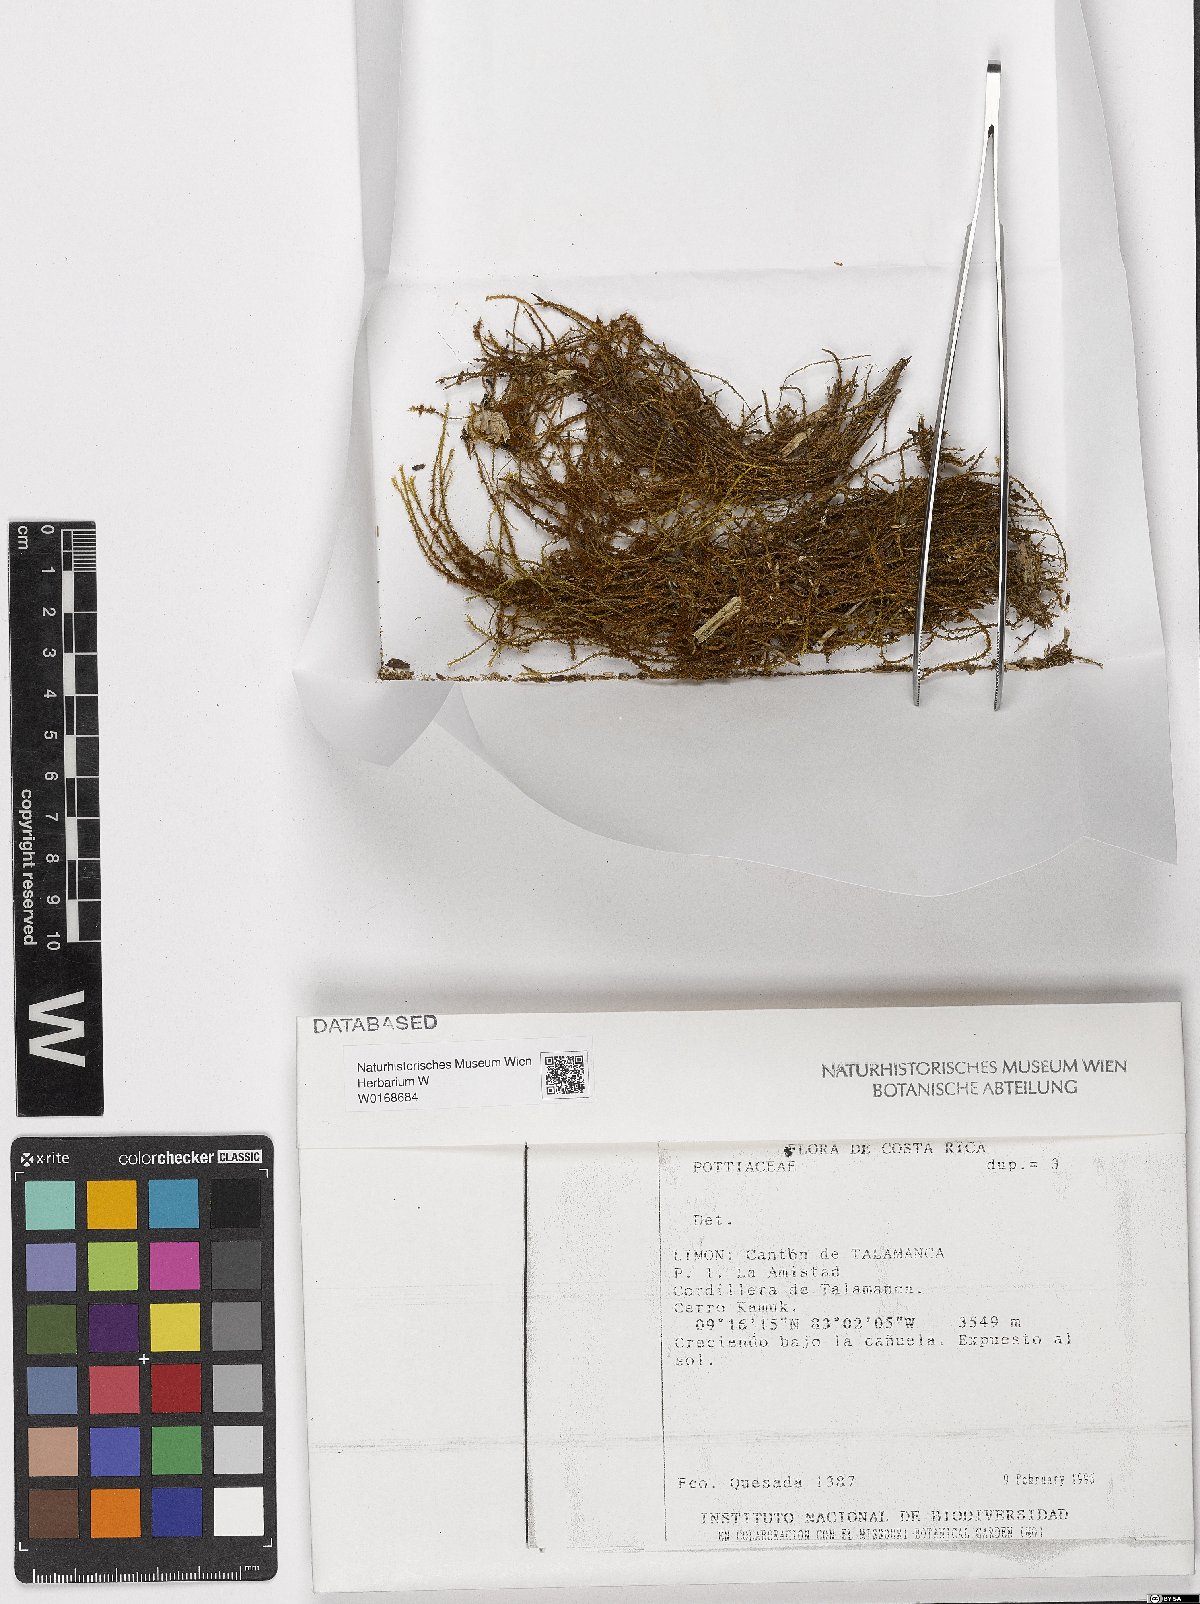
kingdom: Plantae
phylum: Bryophyta
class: Bryopsida
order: Pottiales
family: Pottiaceae
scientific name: Pottiaceae
